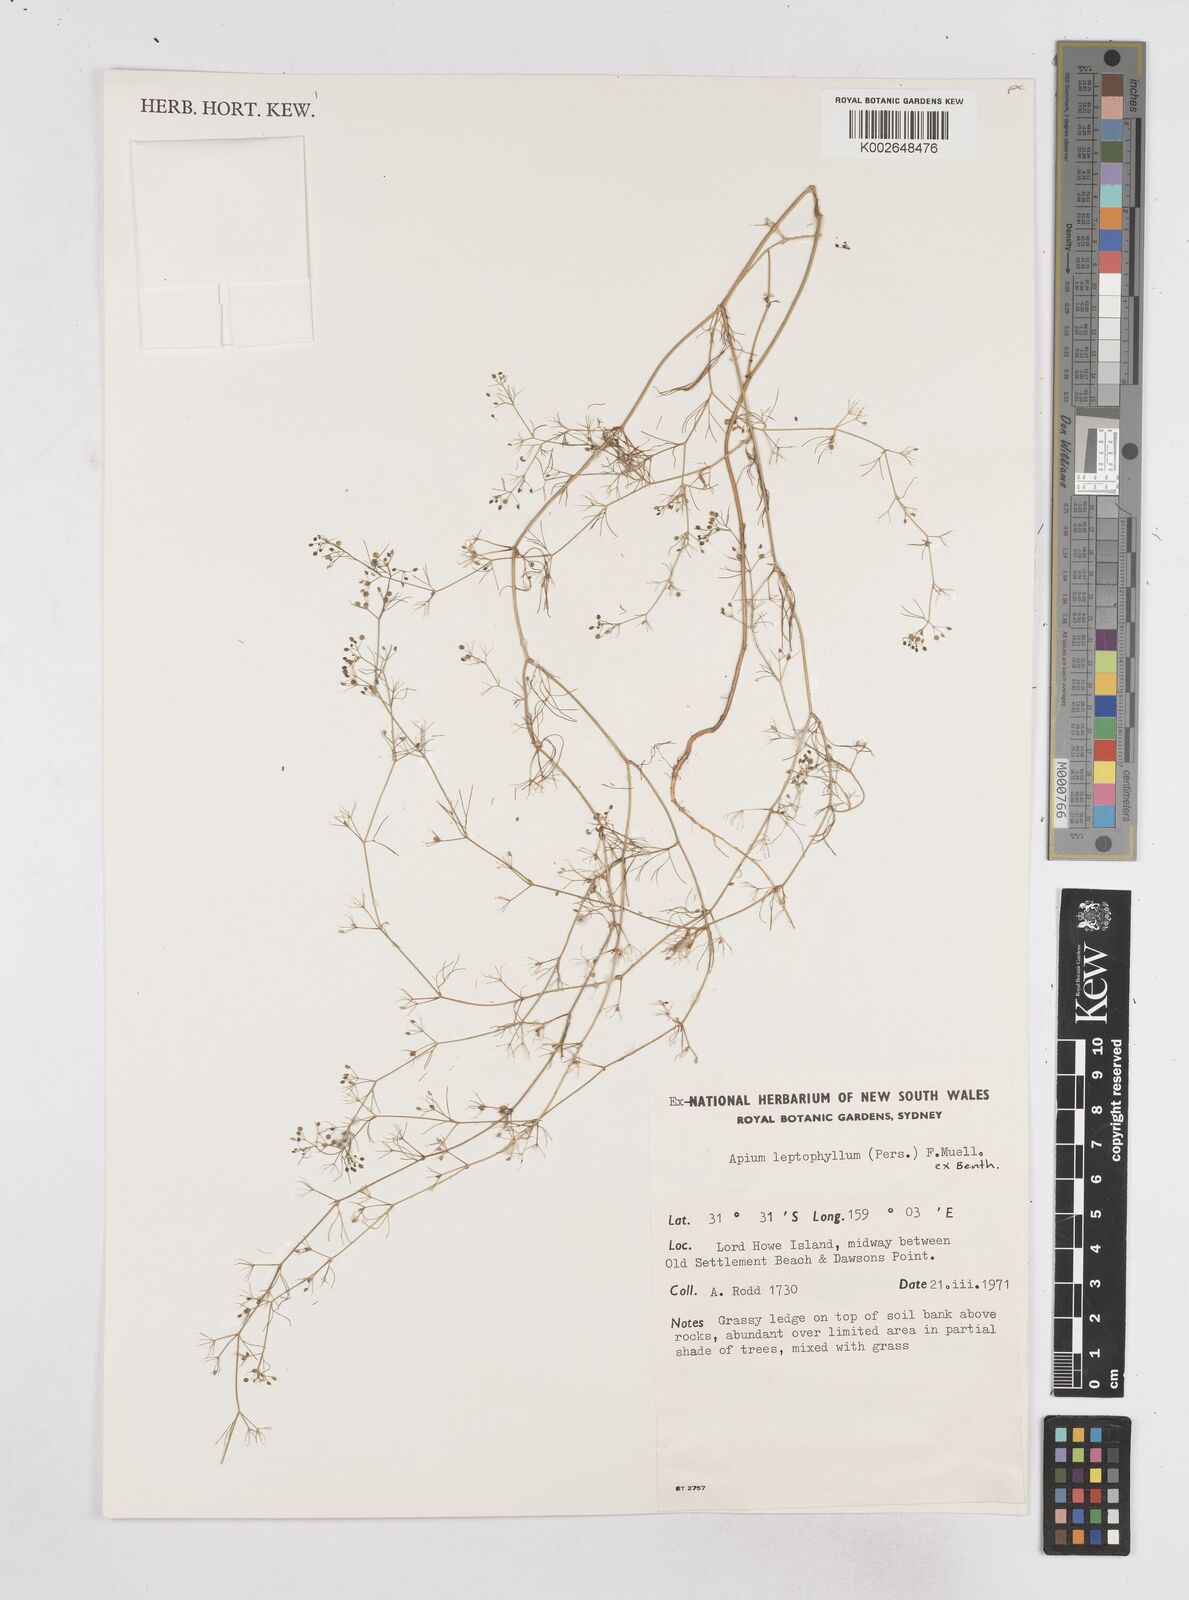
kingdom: Plantae
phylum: Tracheophyta
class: Magnoliopsida
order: Apiales
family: Apiaceae
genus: Cyclospermum
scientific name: Cyclospermum leptophyllum
